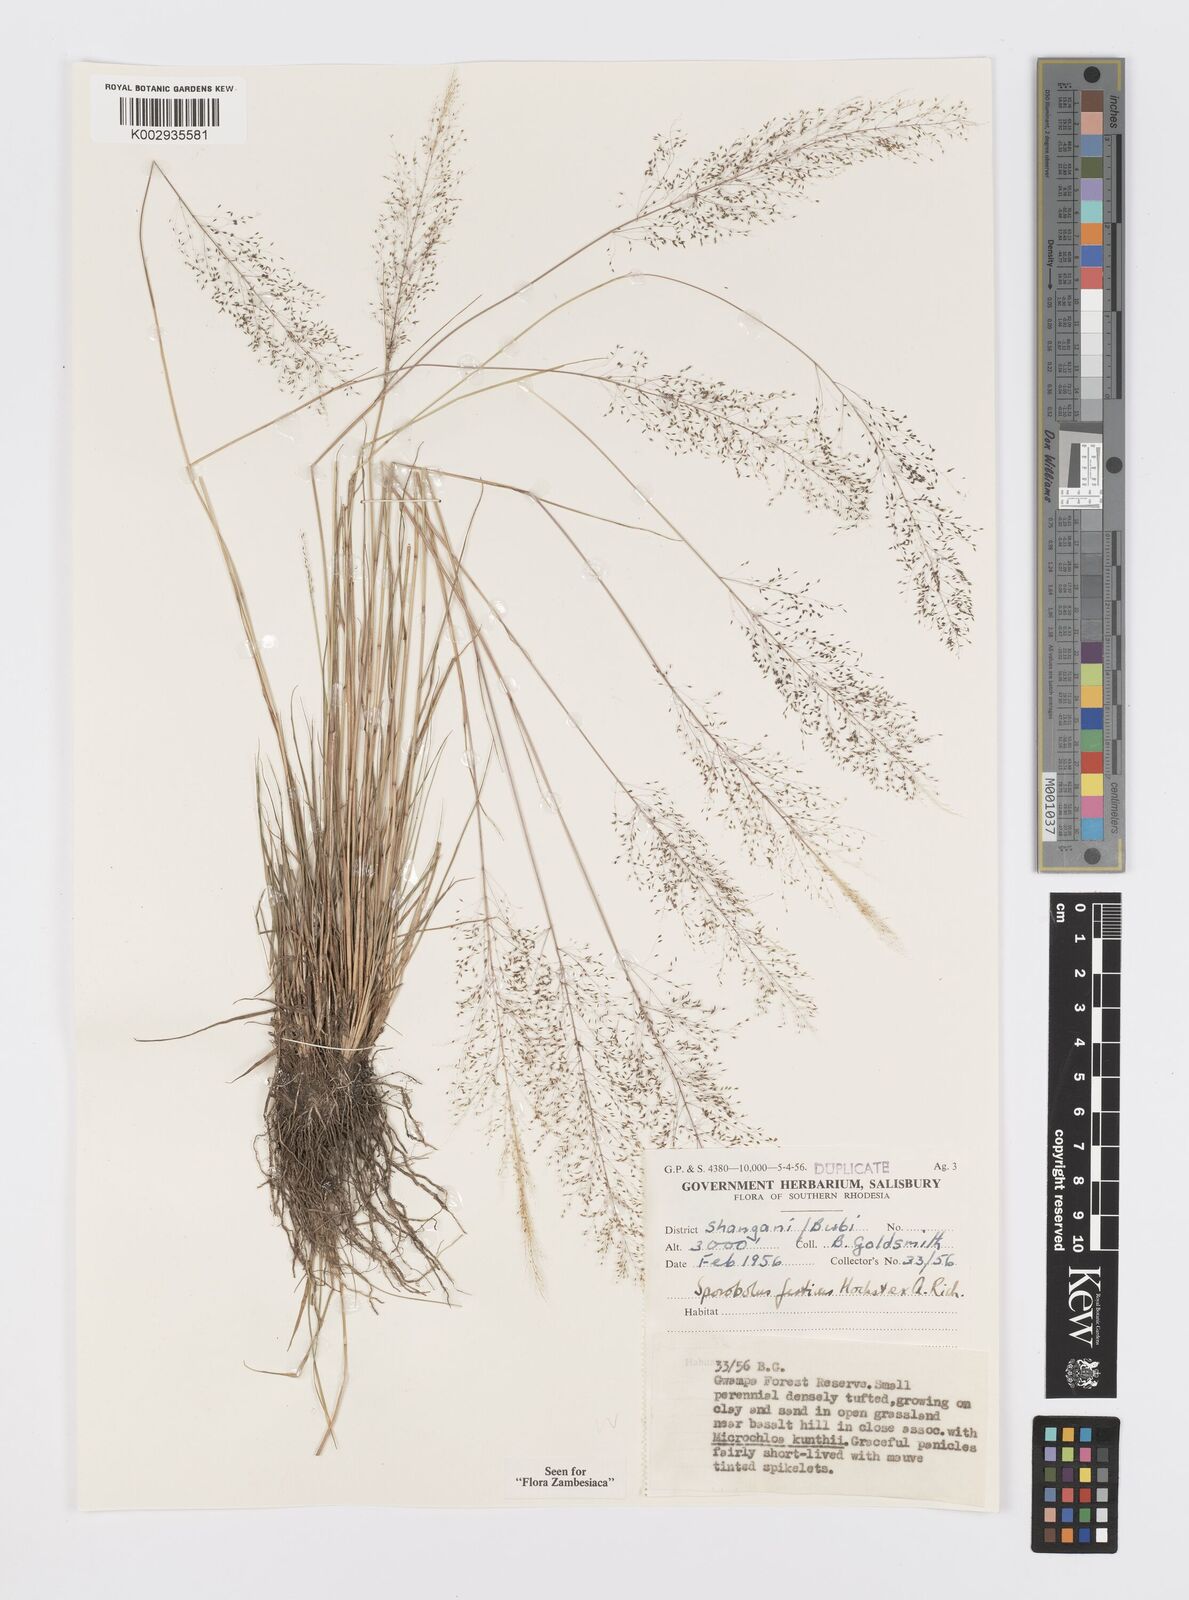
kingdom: Plantae
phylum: Tracheophyta
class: Liliopsida
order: Poales
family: Poaceae
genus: Sporobolus
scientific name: Sporobolus festivus
